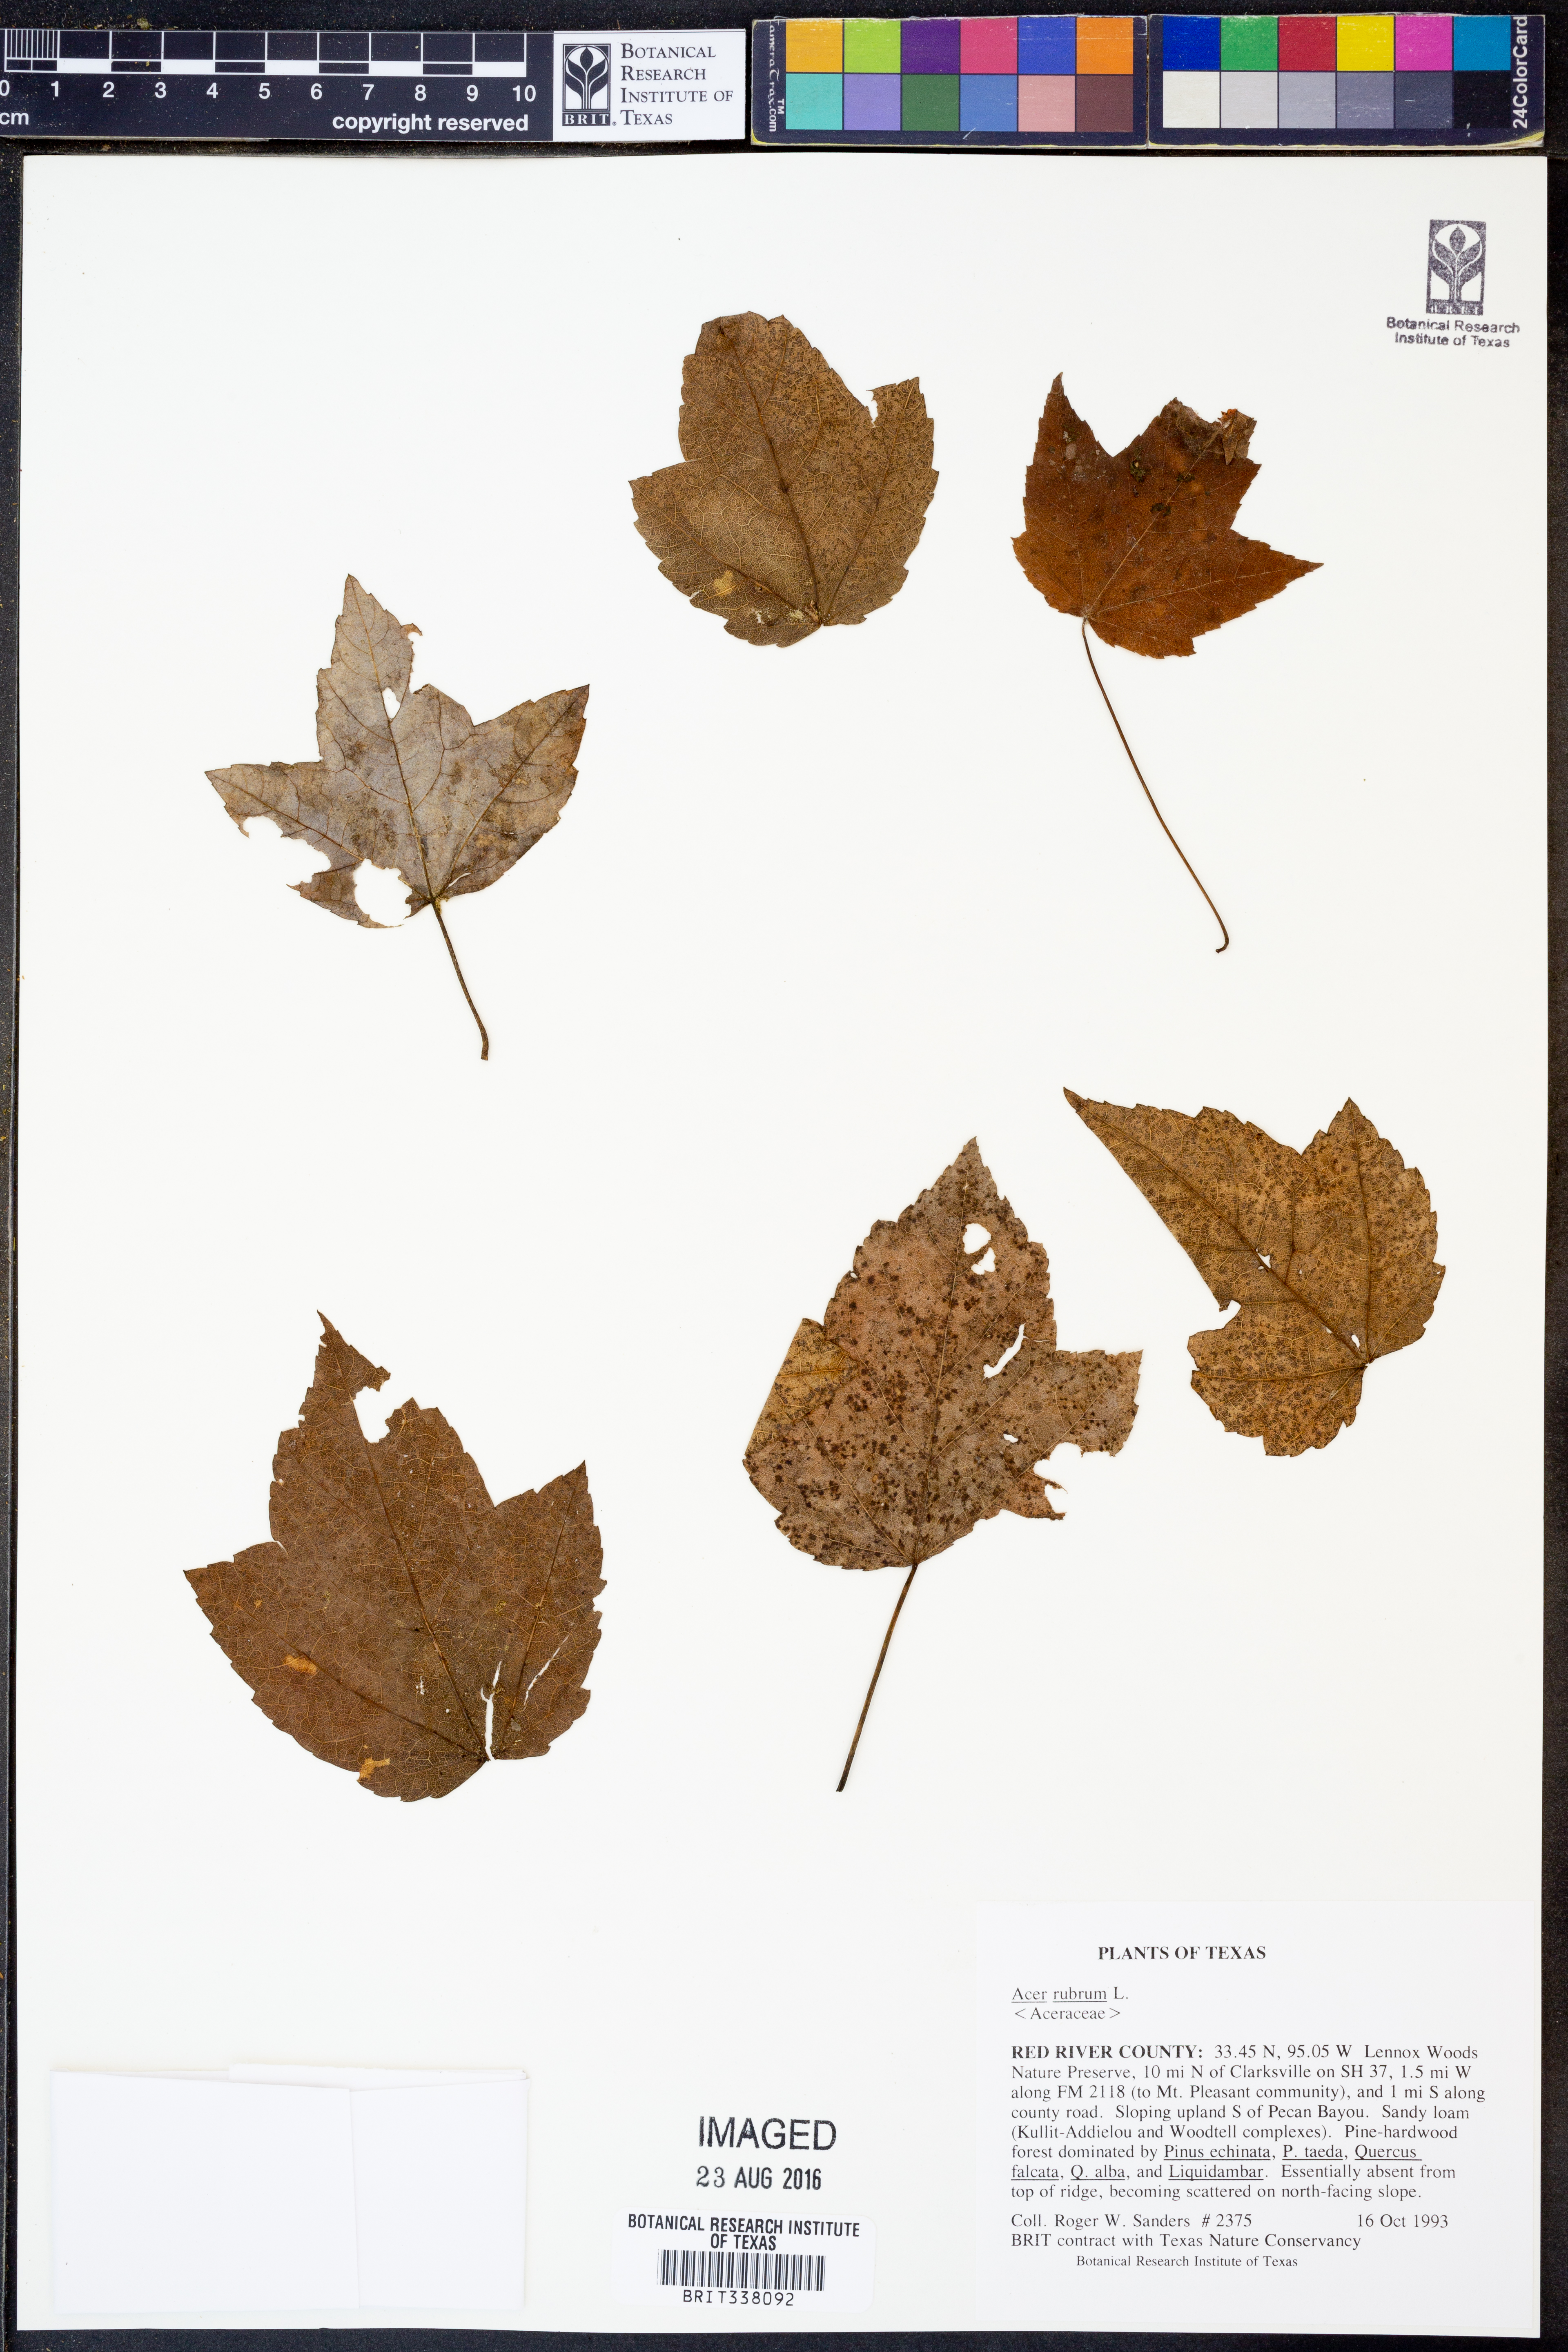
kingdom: Plantae
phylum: Tracheophyta
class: Magnoliopsida
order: Sapindales
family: Sapindaceae
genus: Acer
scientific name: Acer rubrum
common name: Red maple
